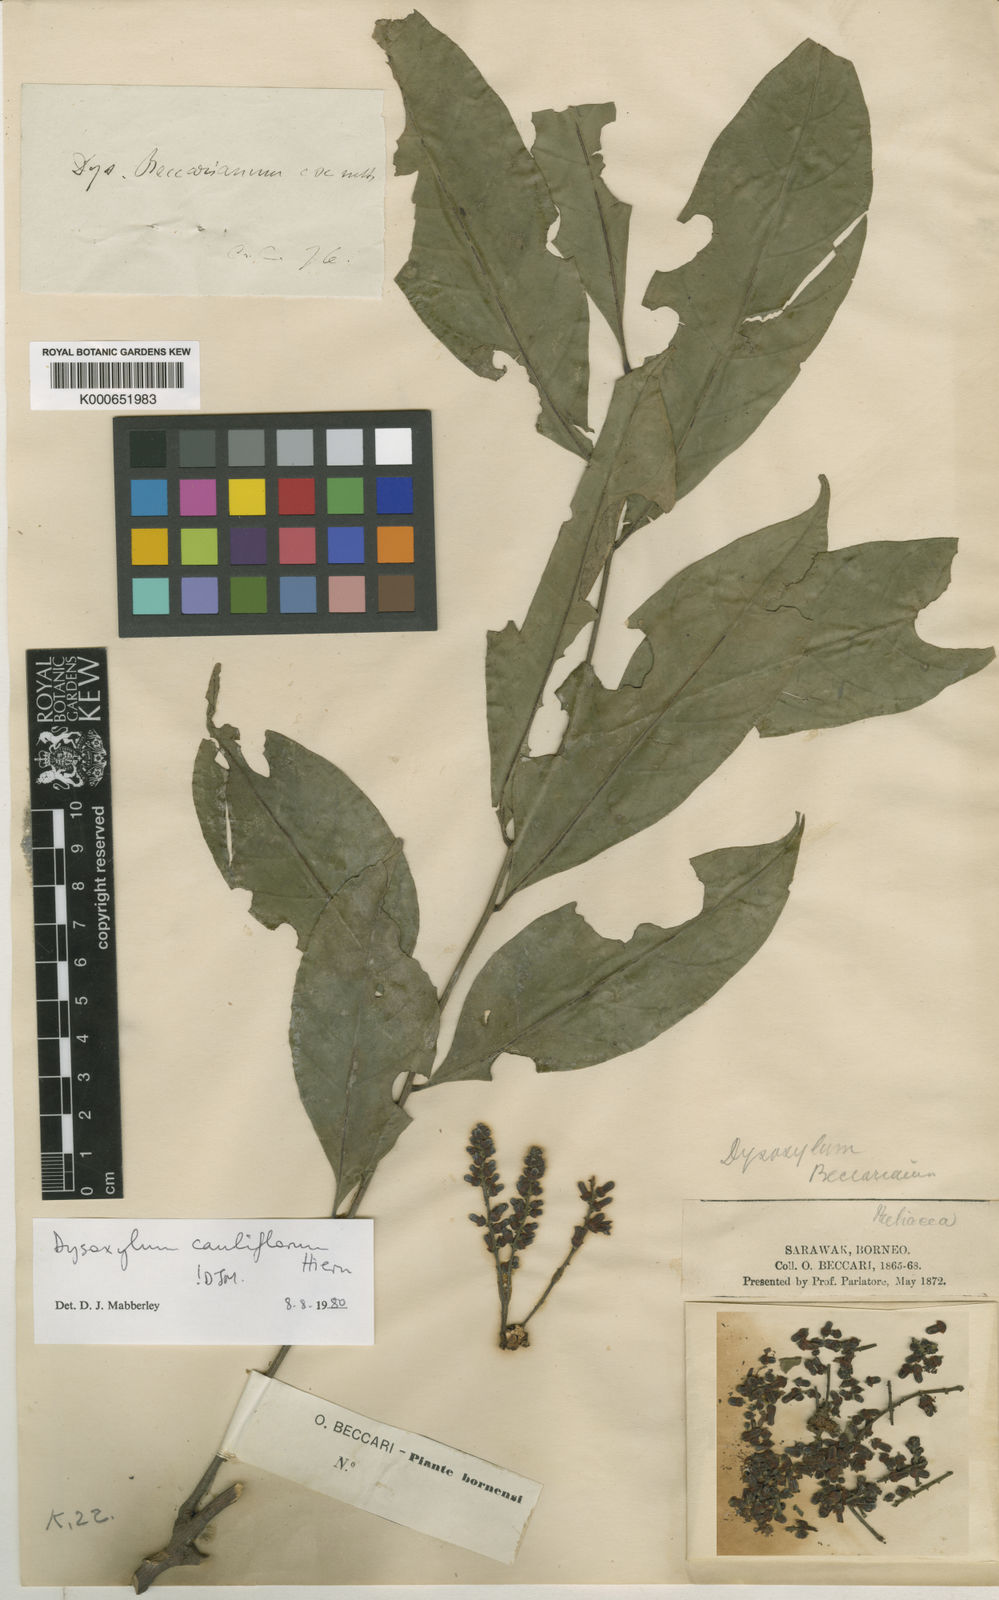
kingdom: Plantae
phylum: Tracheophyta
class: Magnoliopsida
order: Sapindales
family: Meliaceae
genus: Epicharis
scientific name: Epicharis cuneata
